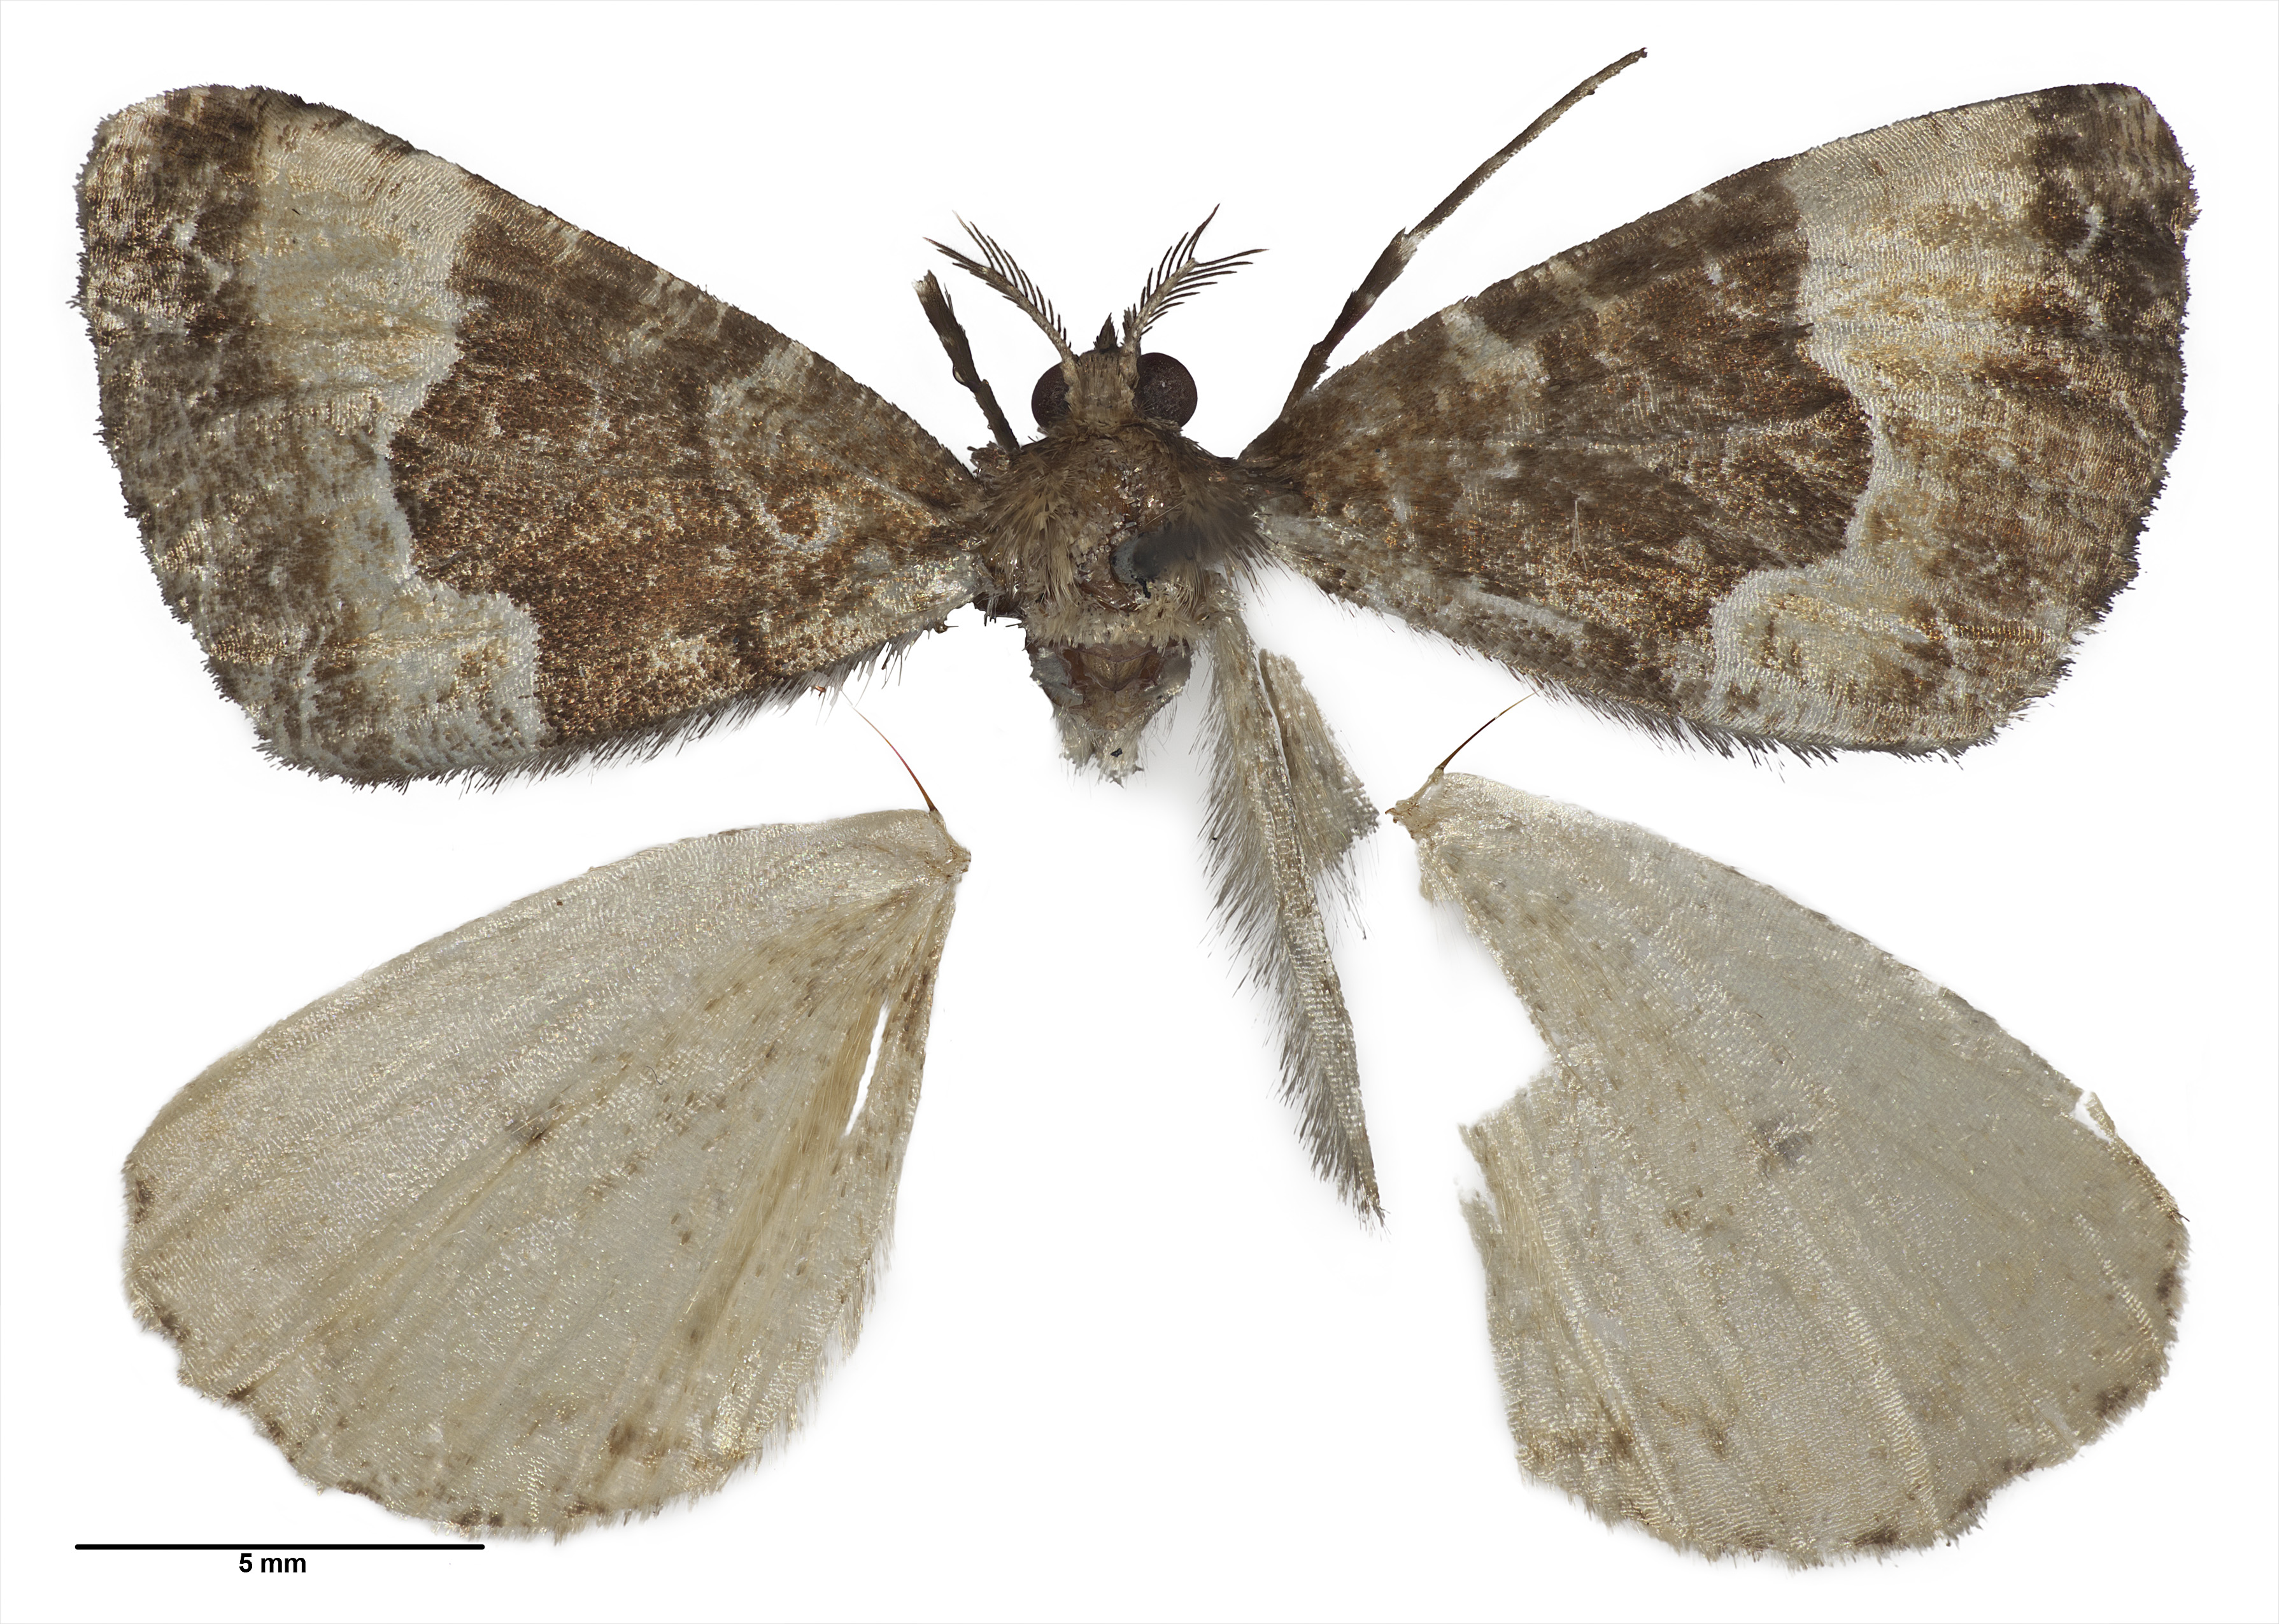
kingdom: Animalia
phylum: Arthropoda
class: Insecta
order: Lepidoptera
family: Geometridae
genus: Pseudocoremia
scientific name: Pseudocoremia insignita
